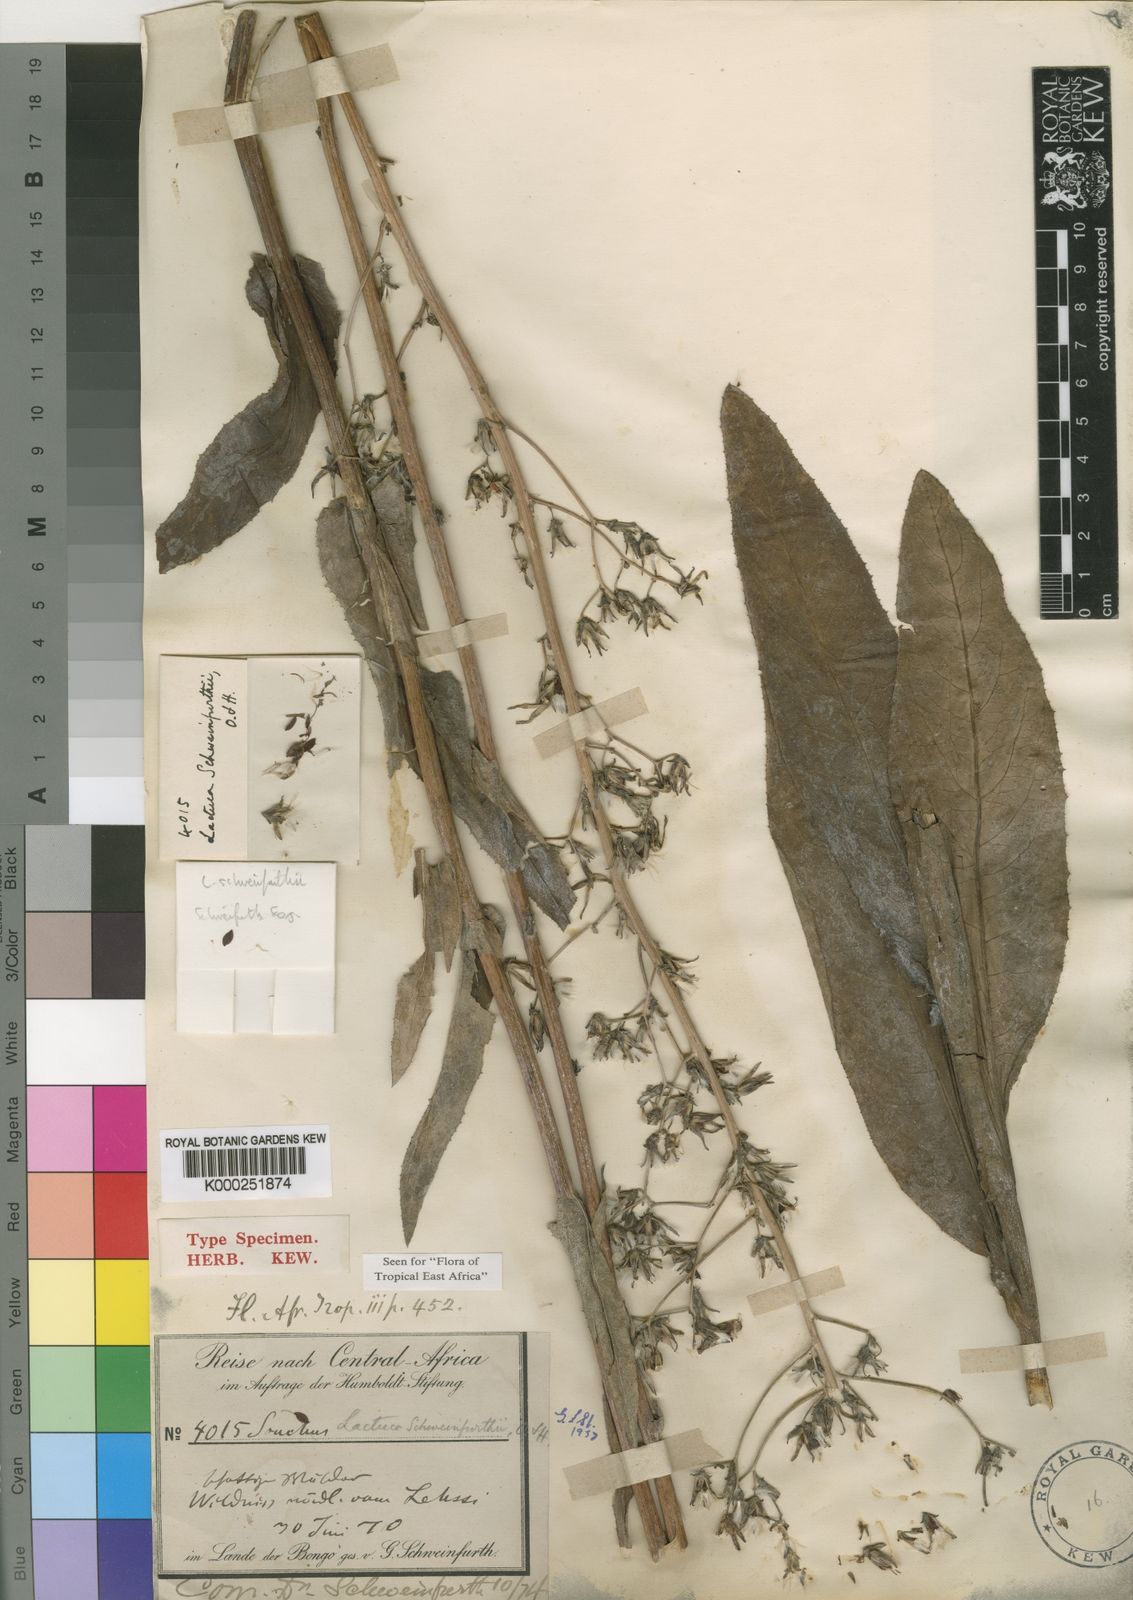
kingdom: Plantae
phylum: Tracheophyta
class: Magnoliopsida
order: Asterales
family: Asteraceae
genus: Lactuca
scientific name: Lactuca schweinfurthii
